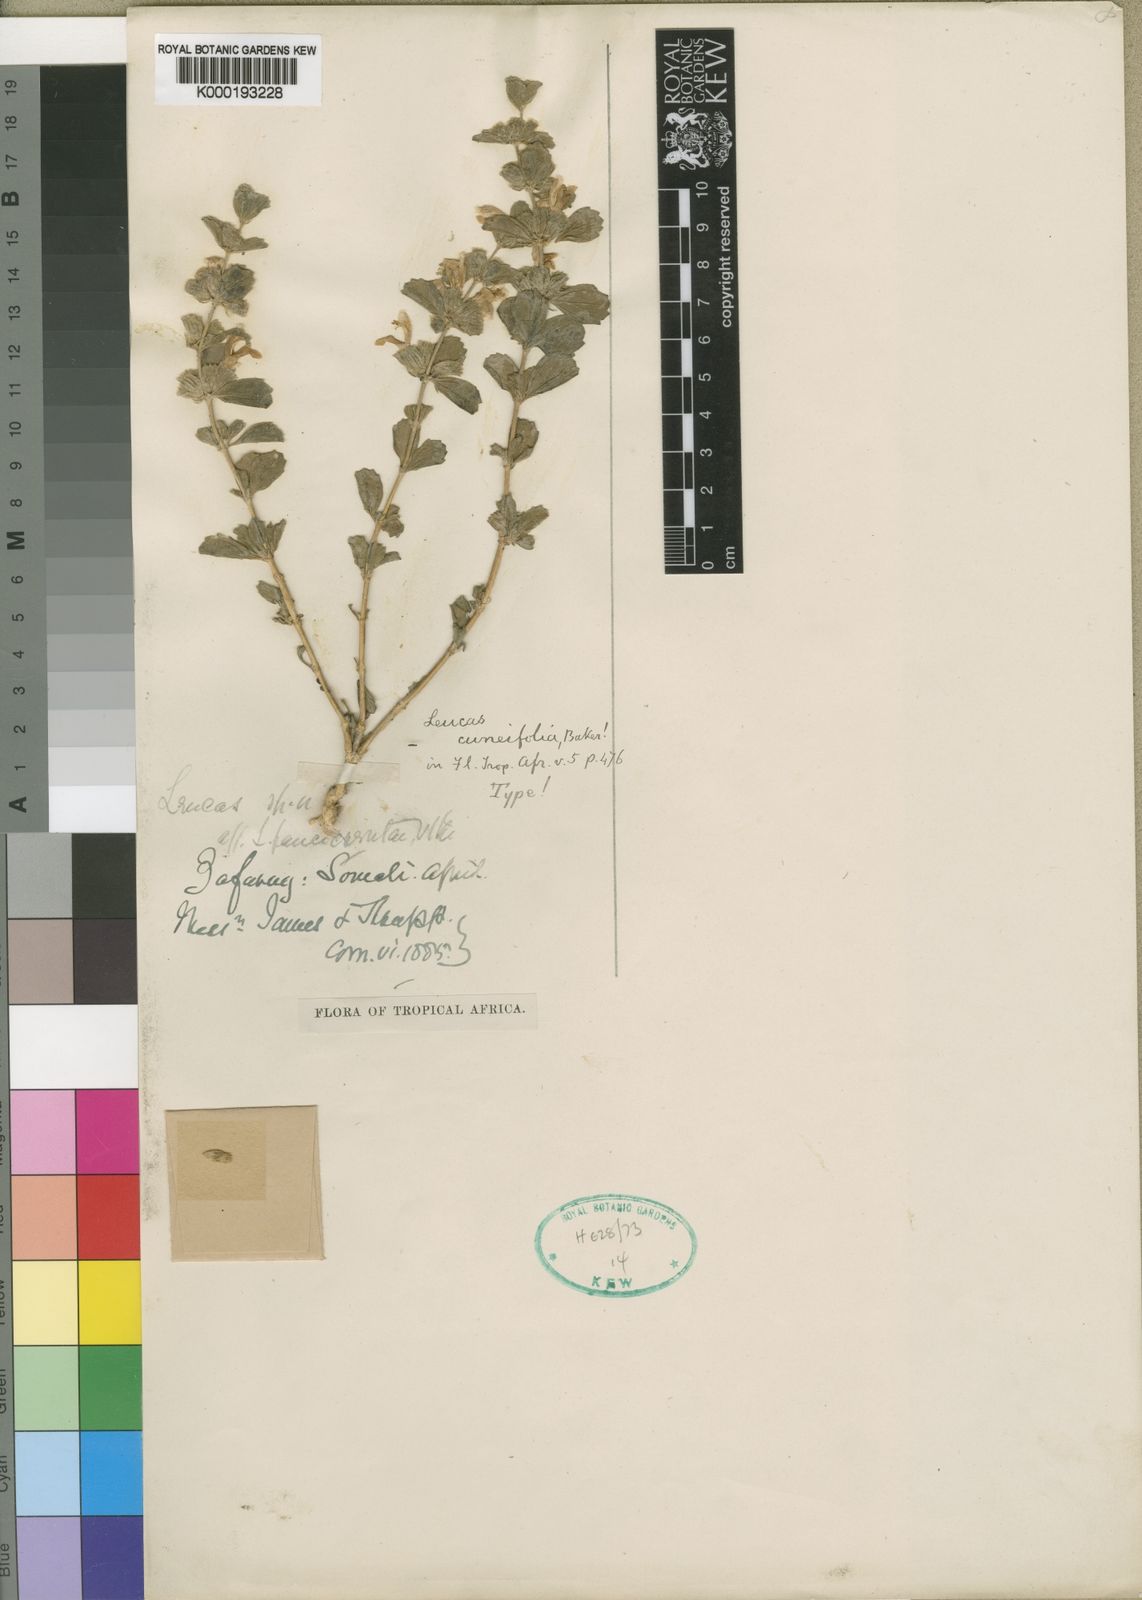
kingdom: Plantae
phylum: Tracheophyta
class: Magnoliopsida
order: Lamiales
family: Lamiaceae
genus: Leucas
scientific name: Leucas cuneifolia
